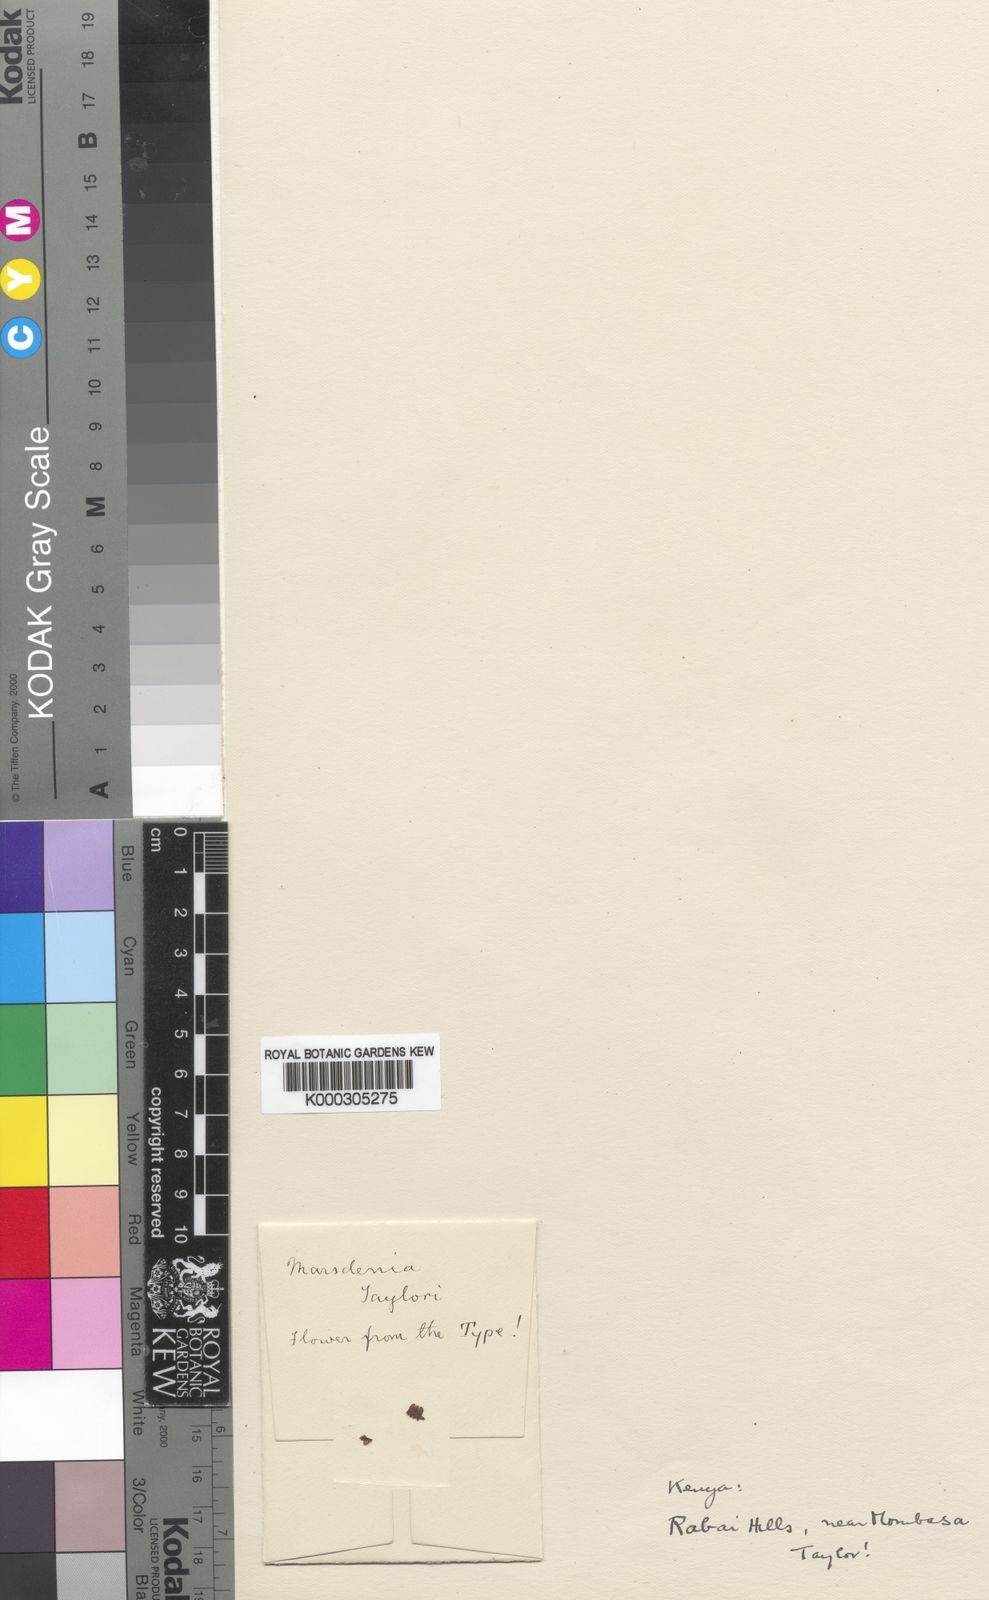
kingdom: Plantae
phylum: Tracheophyta
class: Magnoliopsida
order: Gentianales
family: Apocynaceae
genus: Gongronema
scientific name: Gongronema taylorii
